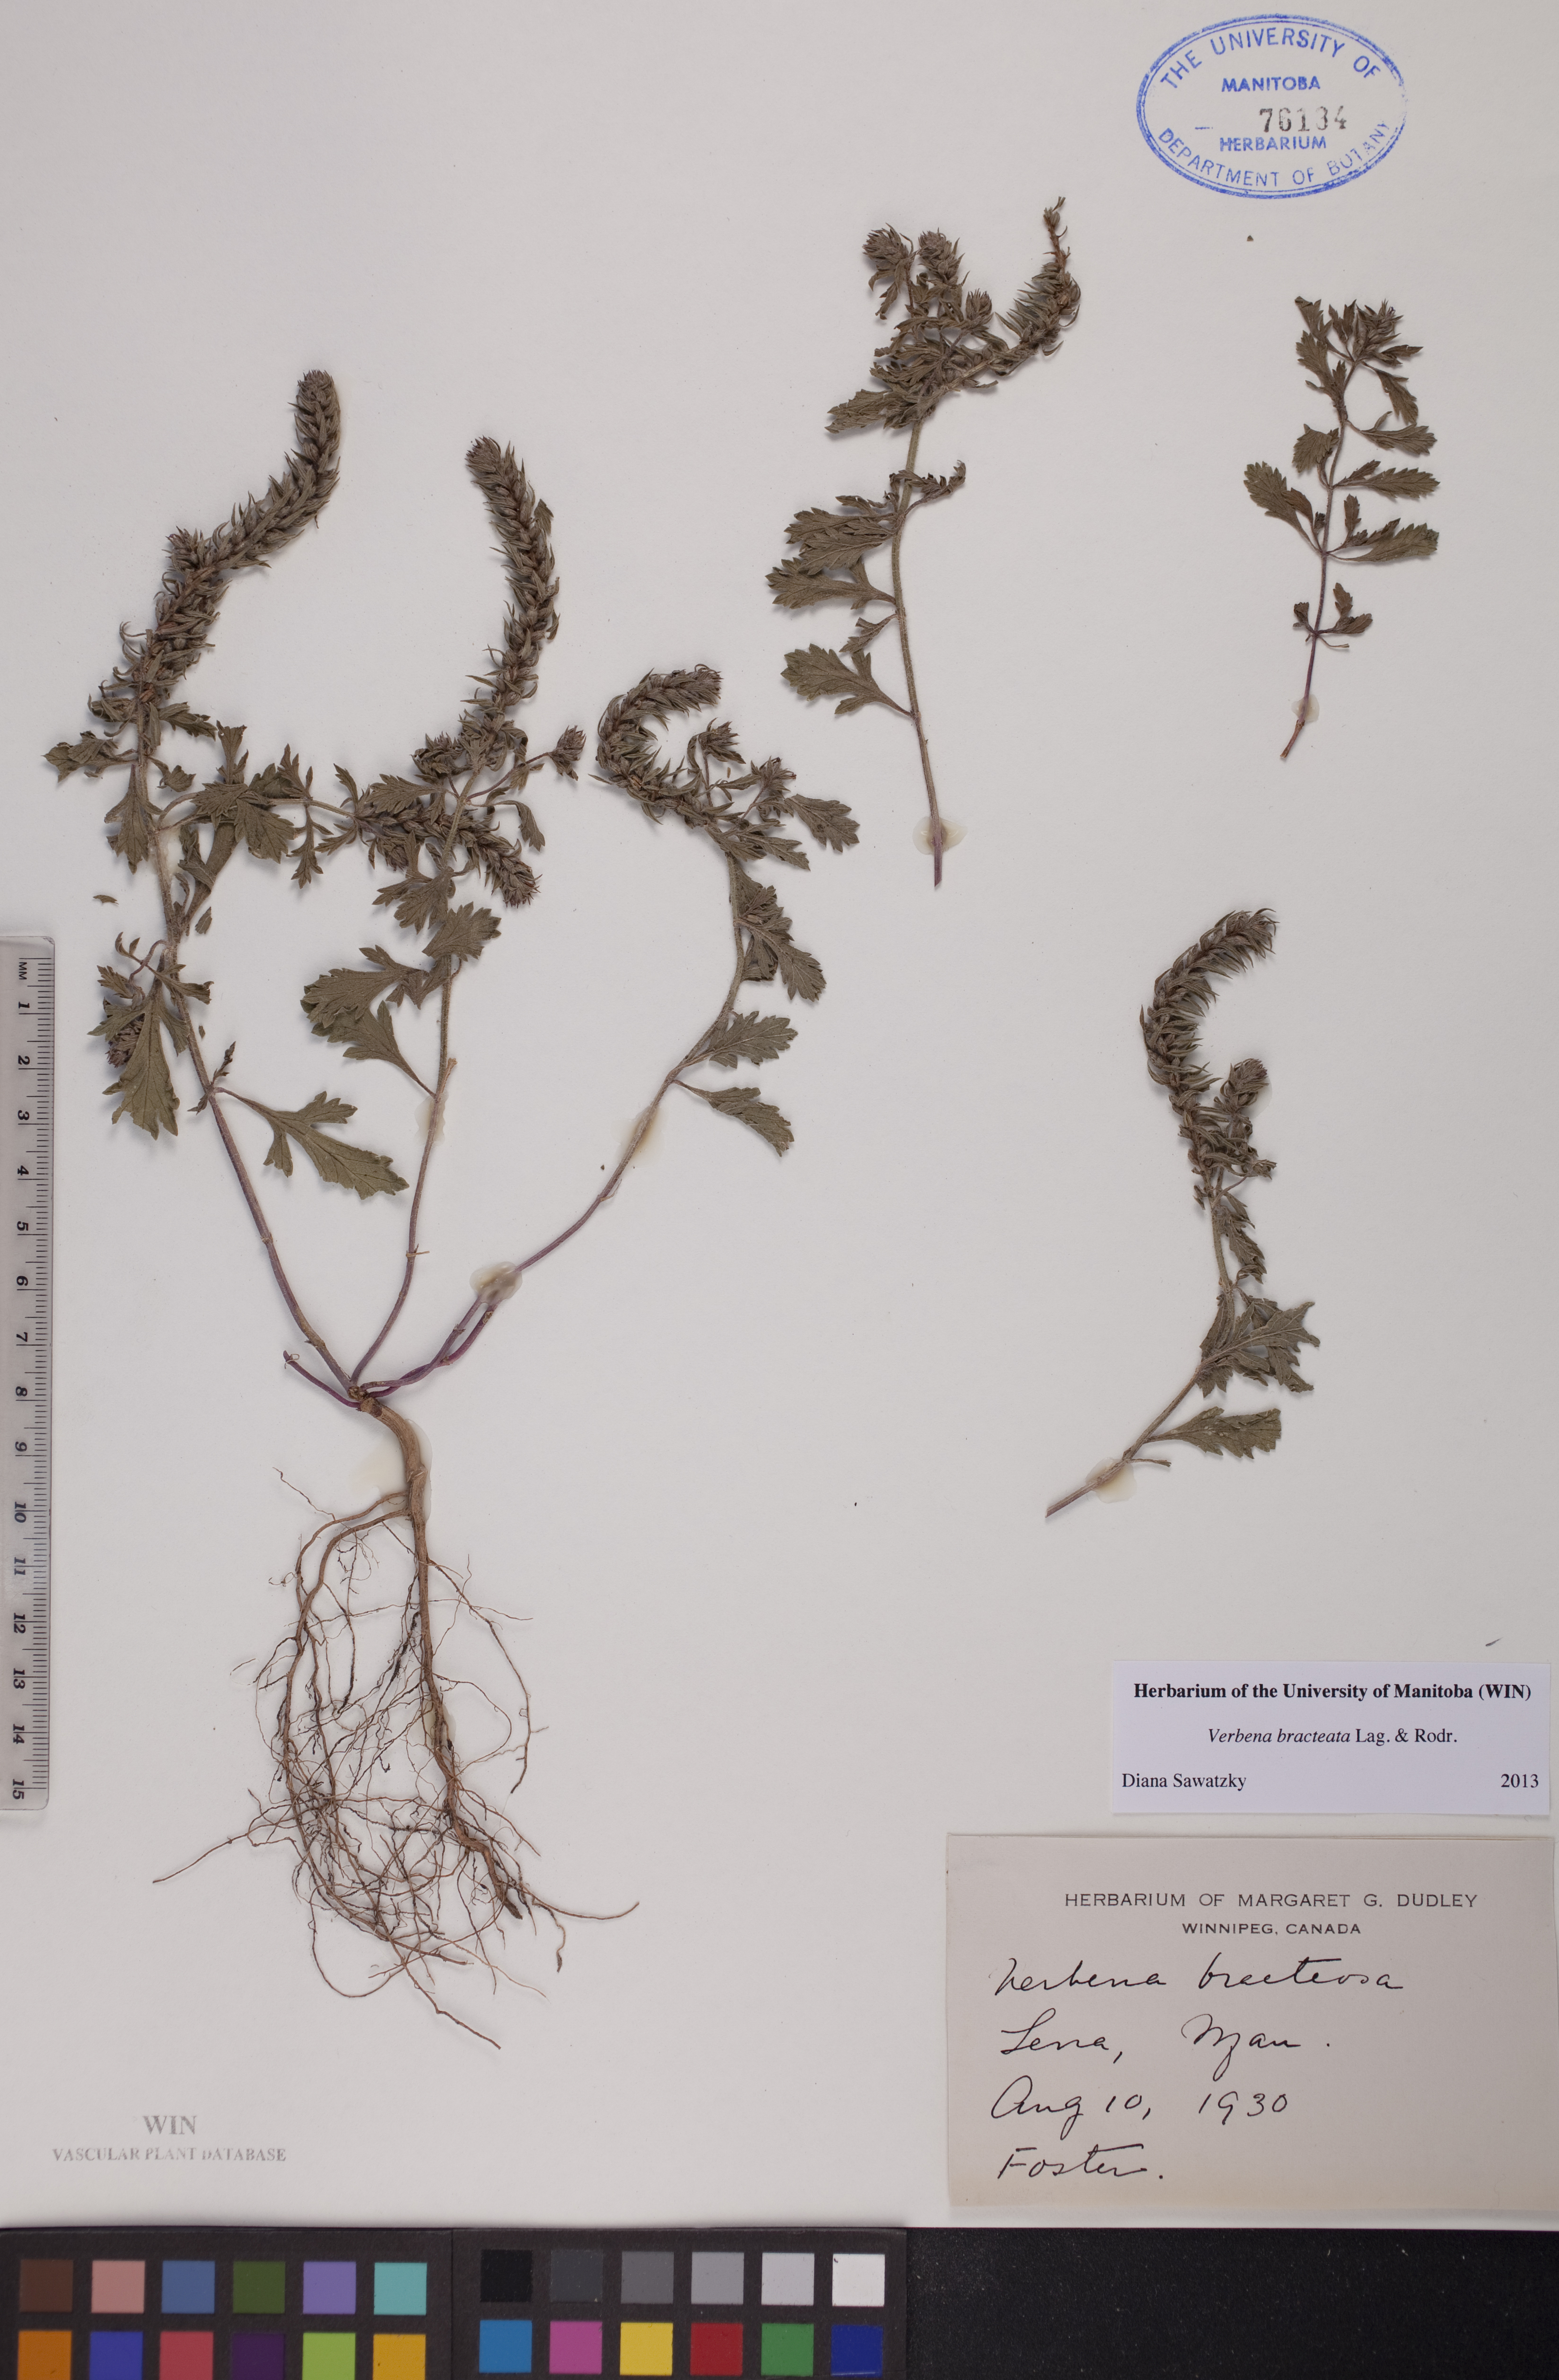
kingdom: Plantae
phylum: Tracheophyta
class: Magnoliopsida
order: Lamiales
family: Verbenaceae
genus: Verbena
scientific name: Verbena bracteata
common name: Bracted vervain
